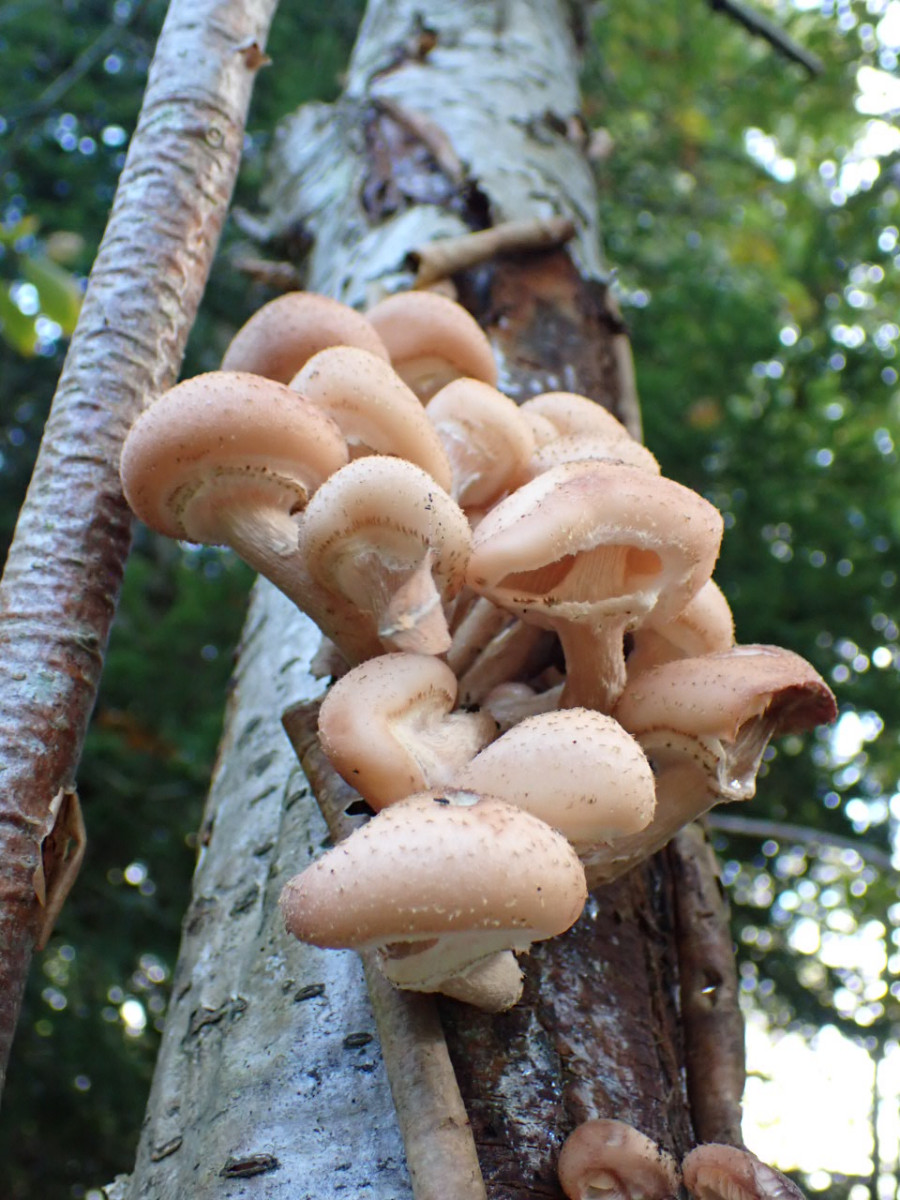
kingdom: Fungi
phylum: Basidiomycota
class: Agaricomycetes
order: Agaricales
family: Physalacriaceae
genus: Armillaria
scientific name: Armillaria
